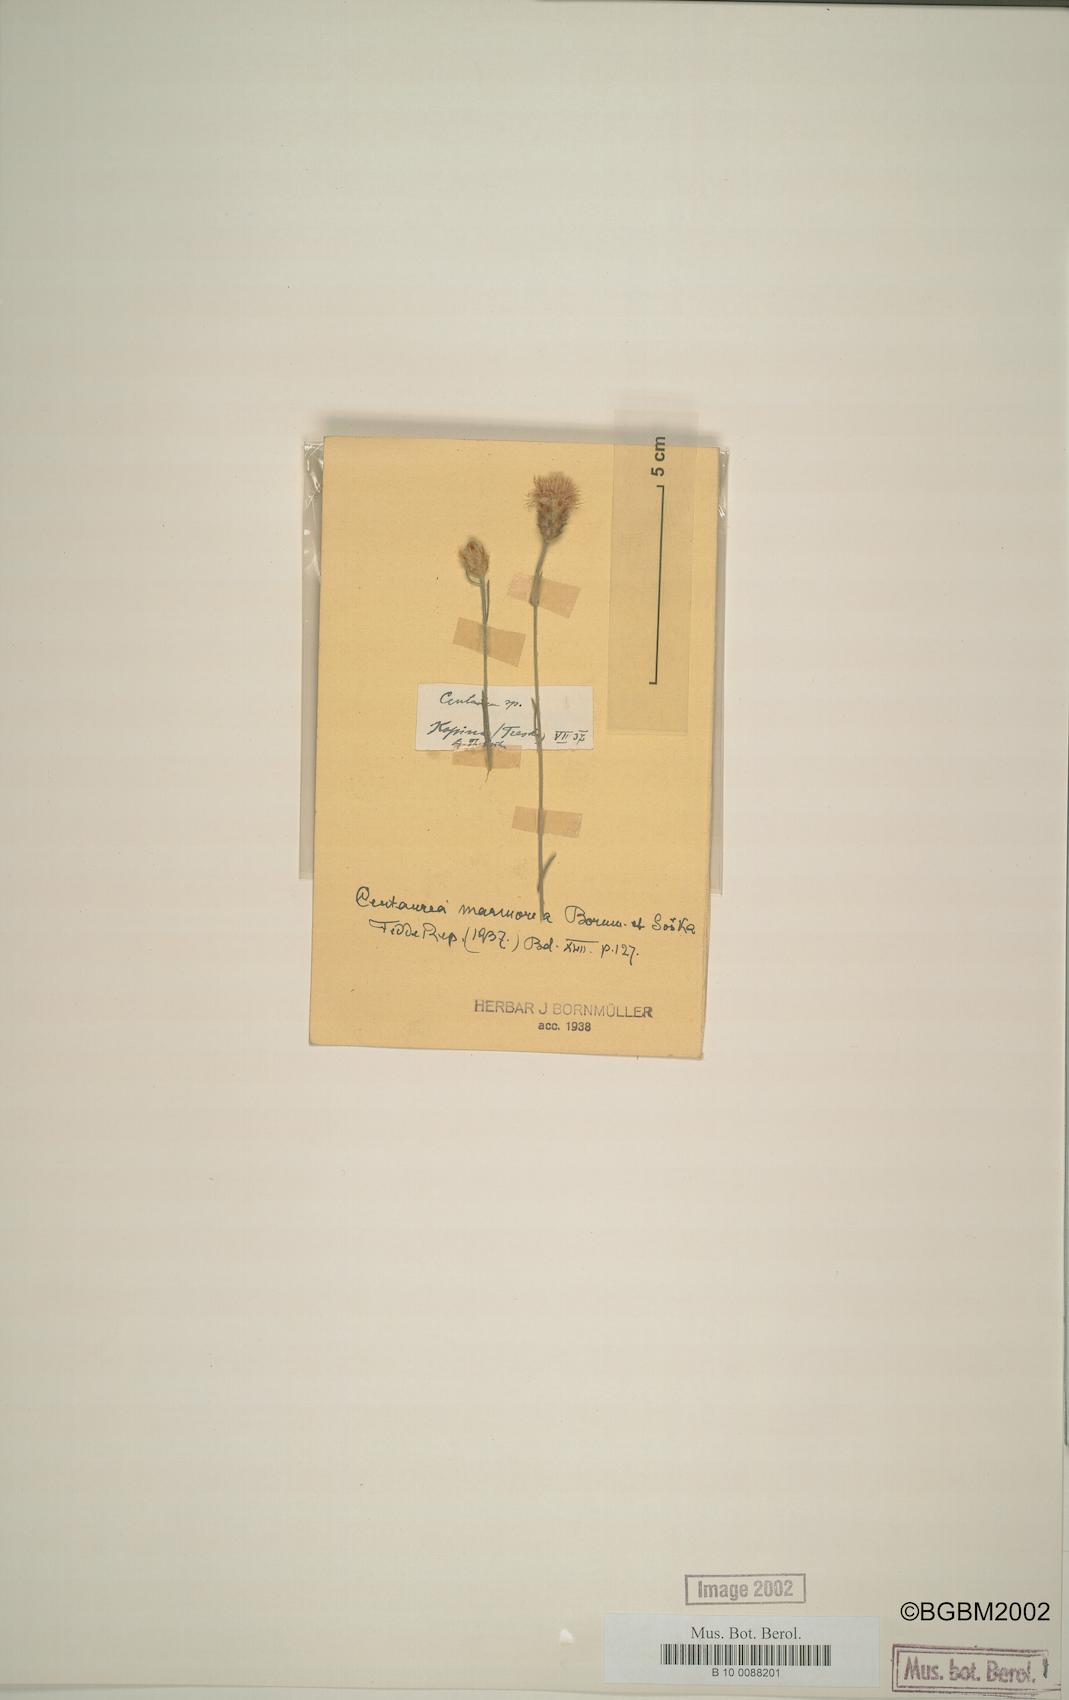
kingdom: Plantae
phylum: Tracheophyta
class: Magnoliopsida
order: Asterales
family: Asteraceae
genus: Centaurea
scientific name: Centaurea marmorea
